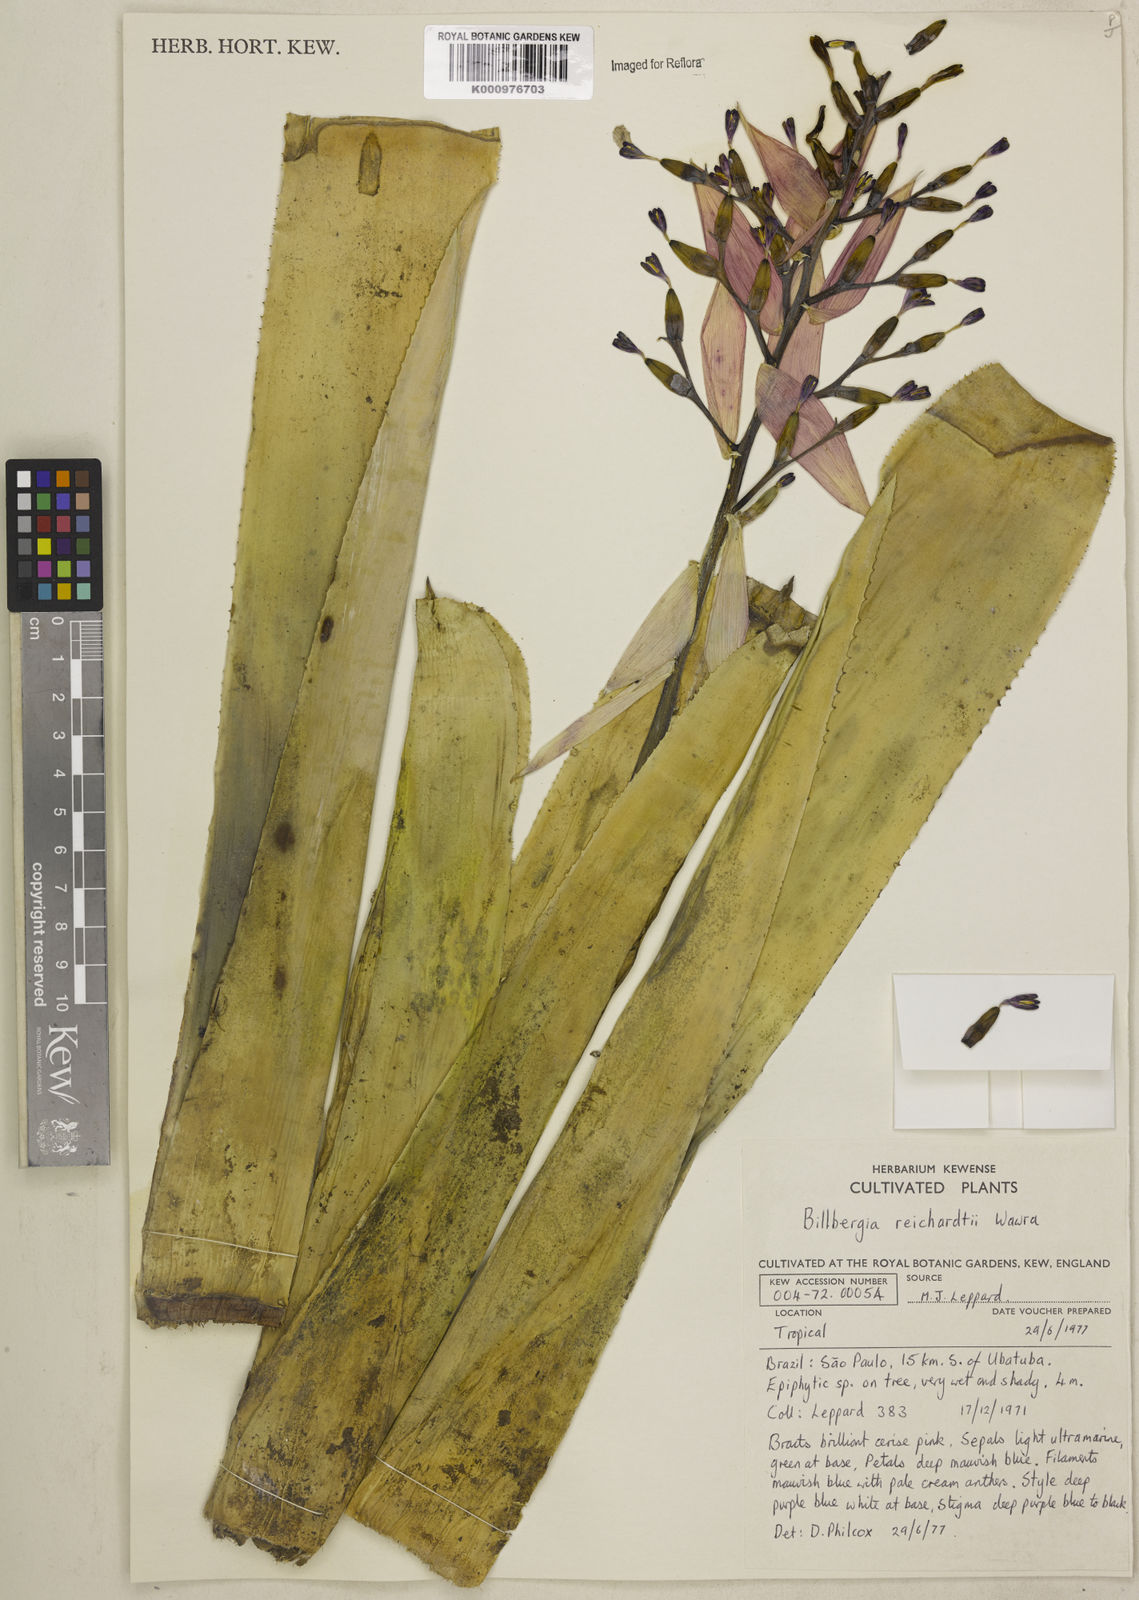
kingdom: Plantae
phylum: Tracheophyta
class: Liliopsida
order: Poales
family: Bromeliaceae
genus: Billbergia
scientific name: Billbergia reichardtii
